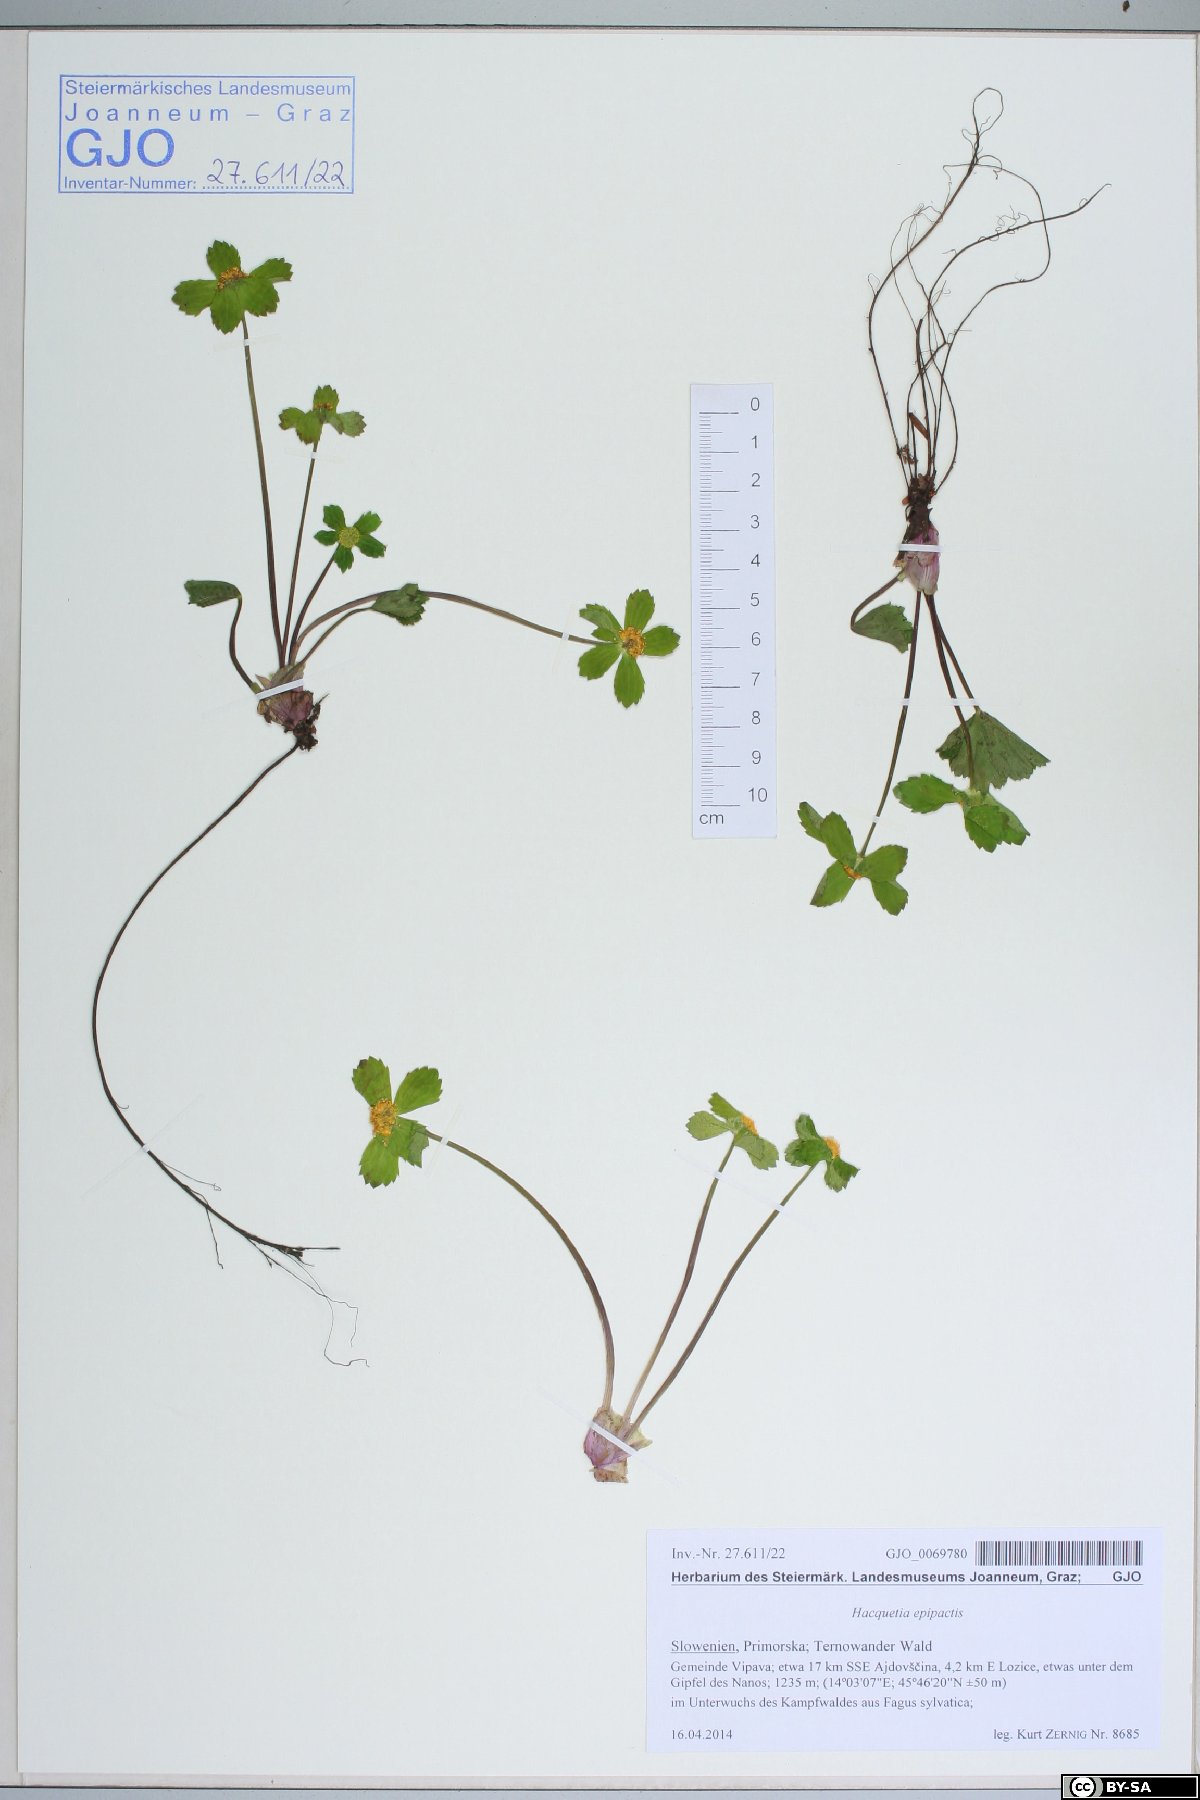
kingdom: Plantae
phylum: Tracheophyta
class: Magnoliopsida
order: Apiales
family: Apiaceae
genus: Sanicula
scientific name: Sanicula epipactis
